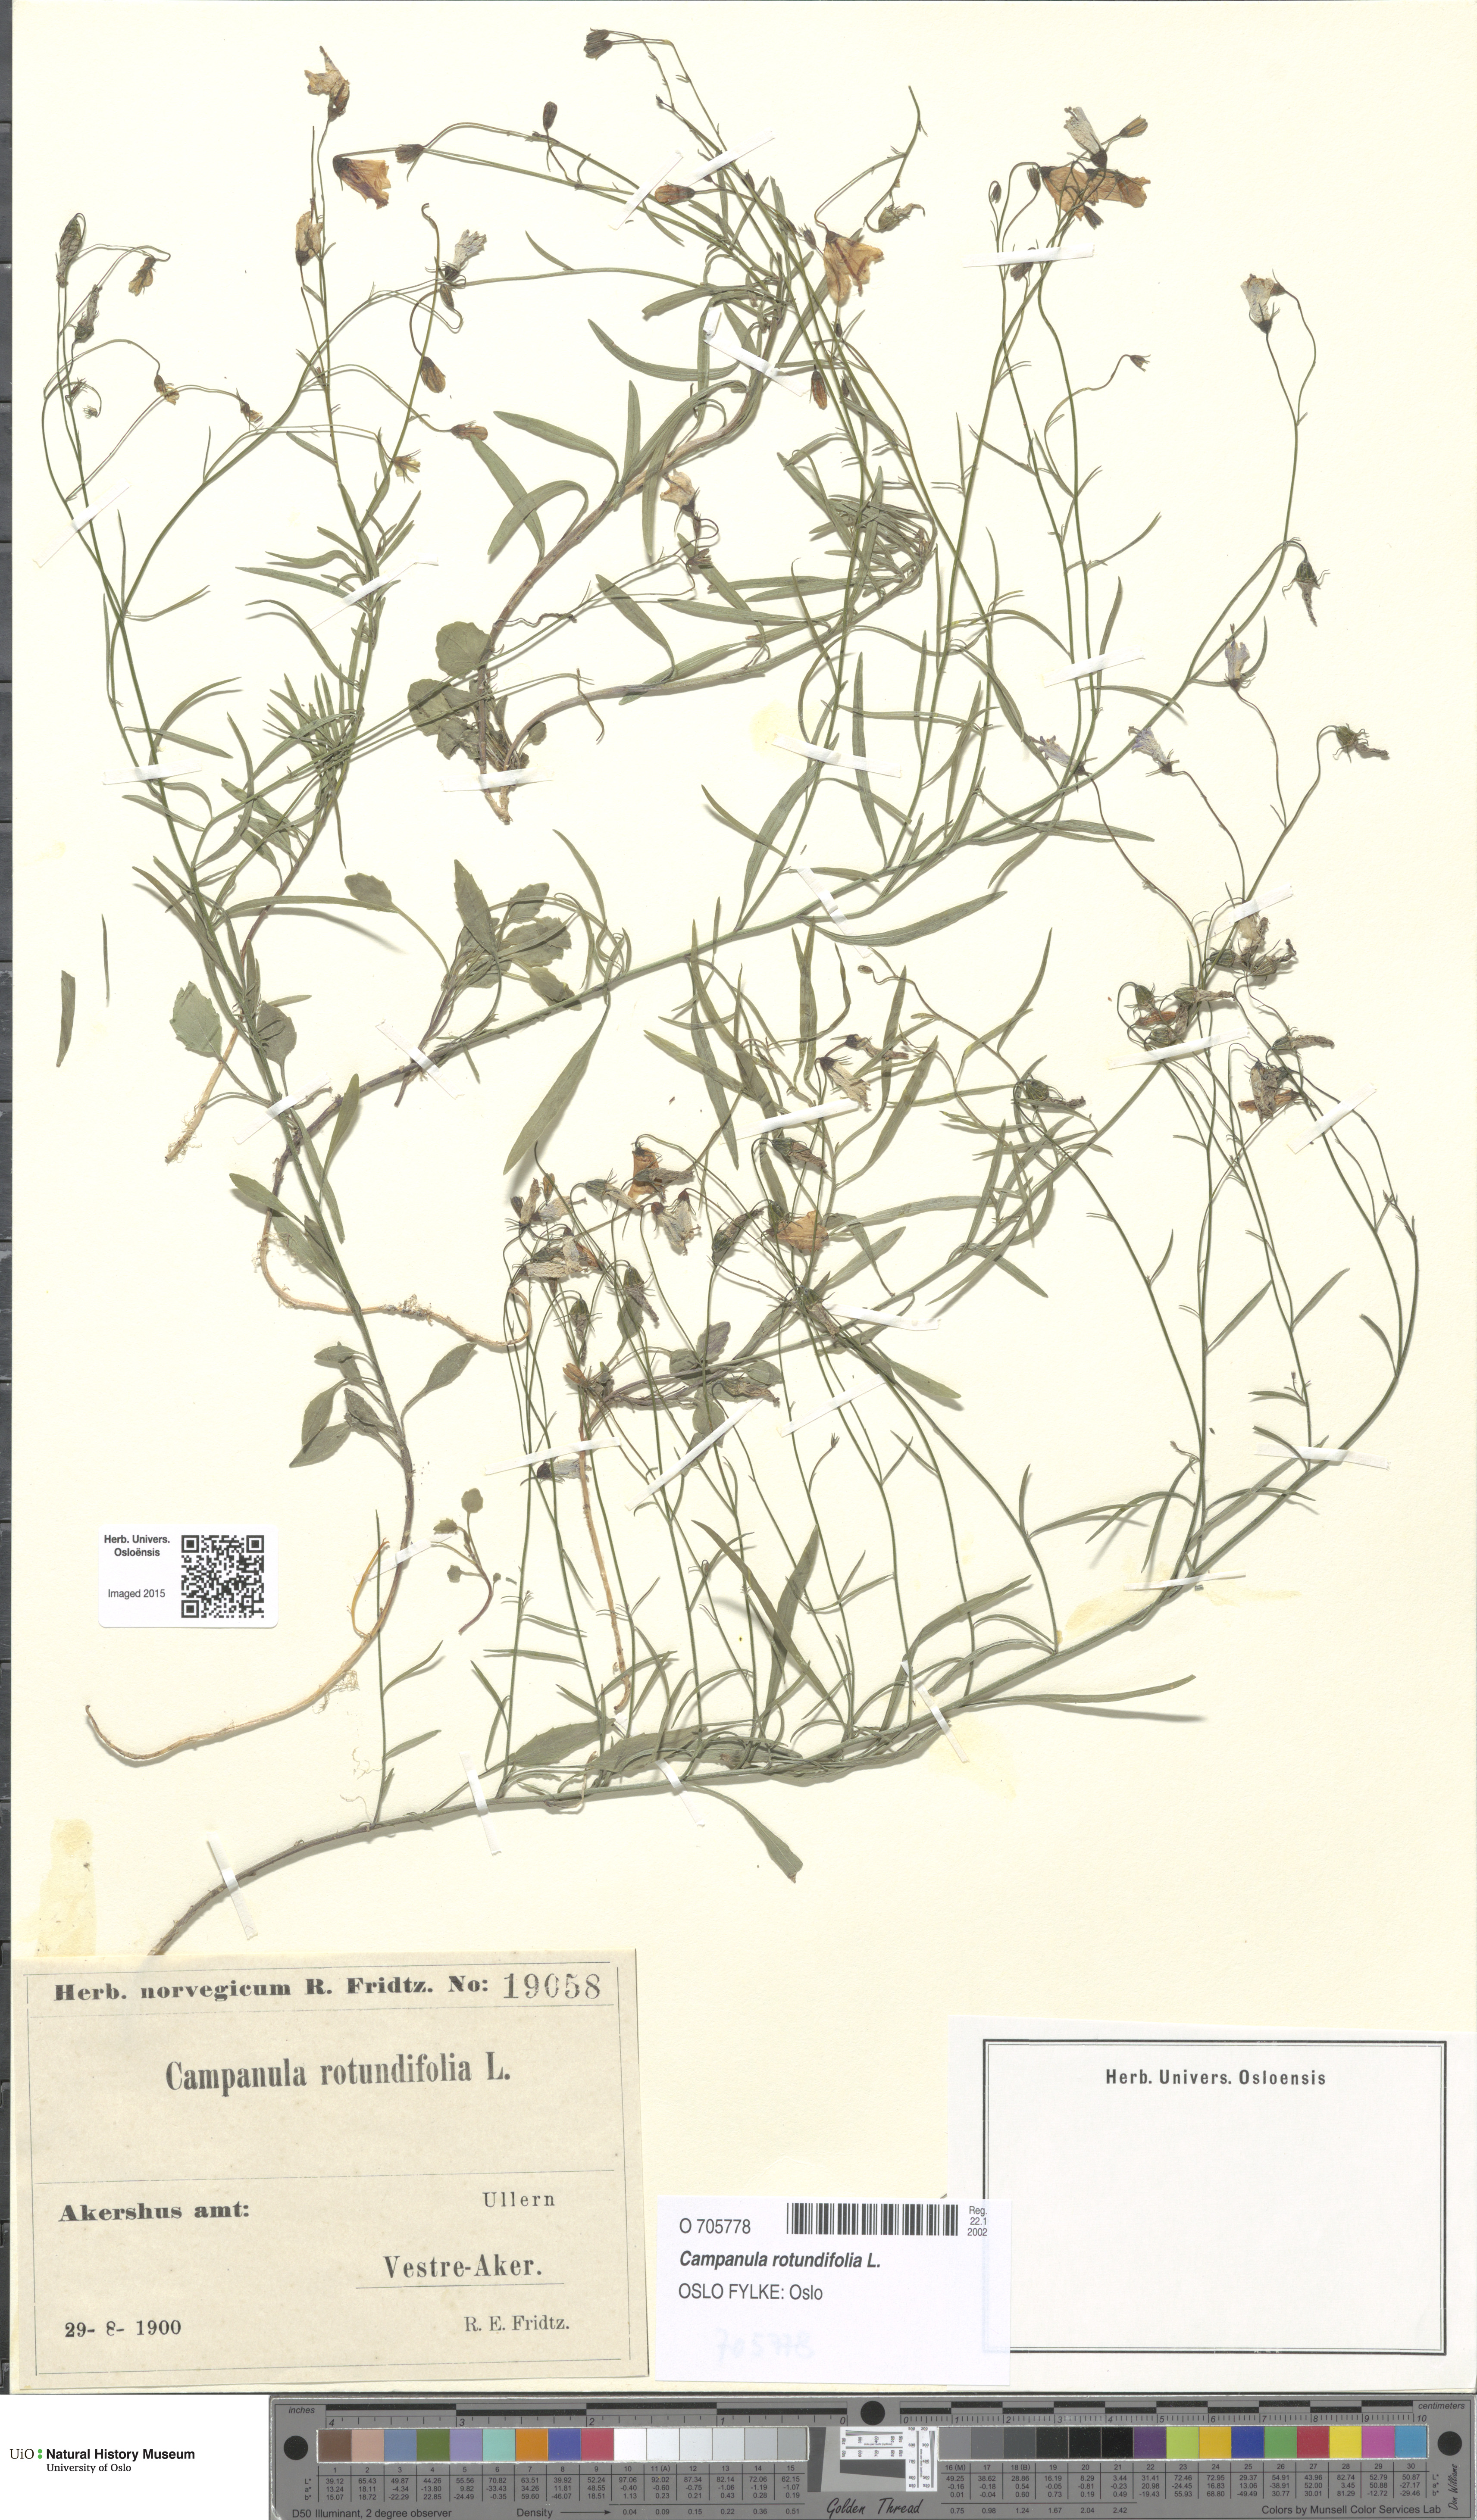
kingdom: Plantae
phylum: Tracheophyta
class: Magnoliopsida
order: Asterales
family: Campanulaceae
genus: Campanula
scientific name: Campanula rotundifolia
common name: Harebell
